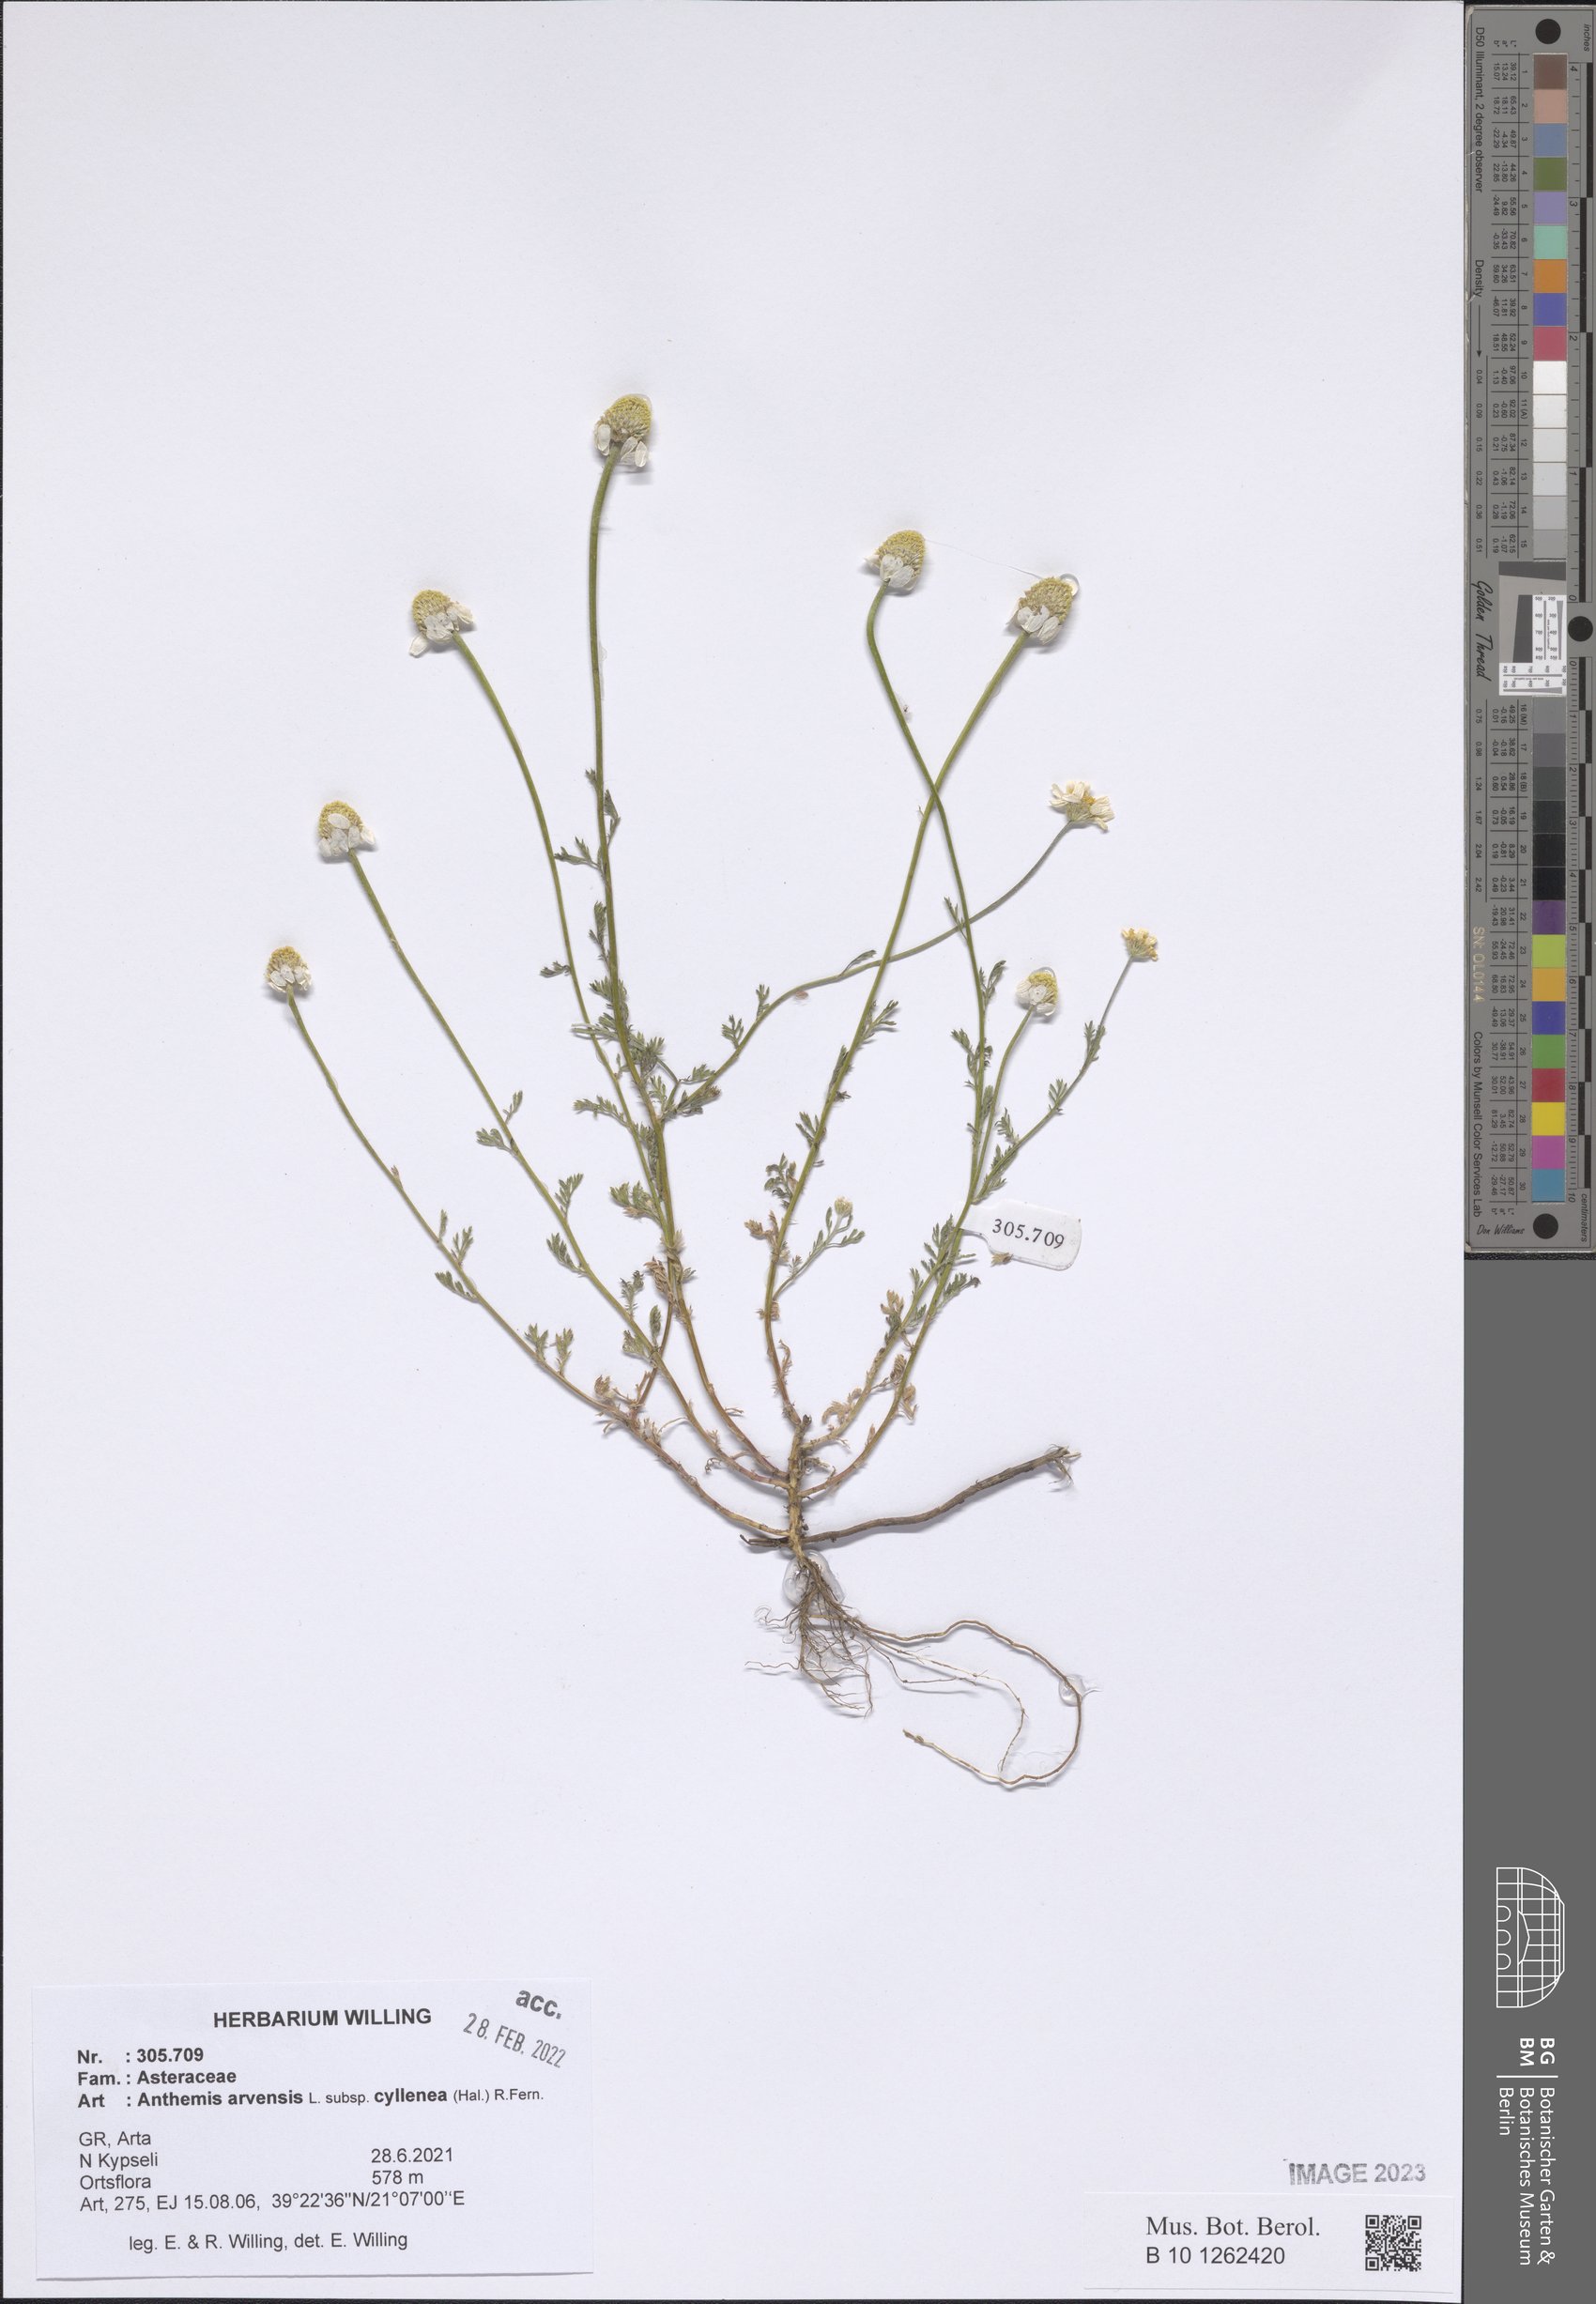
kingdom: Plantae
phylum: Tracheophyta
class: Magnoliopsida
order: Asterales
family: Asteraceae
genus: Anthemis
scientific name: Anthemis arvensis
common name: Corn chamomile
